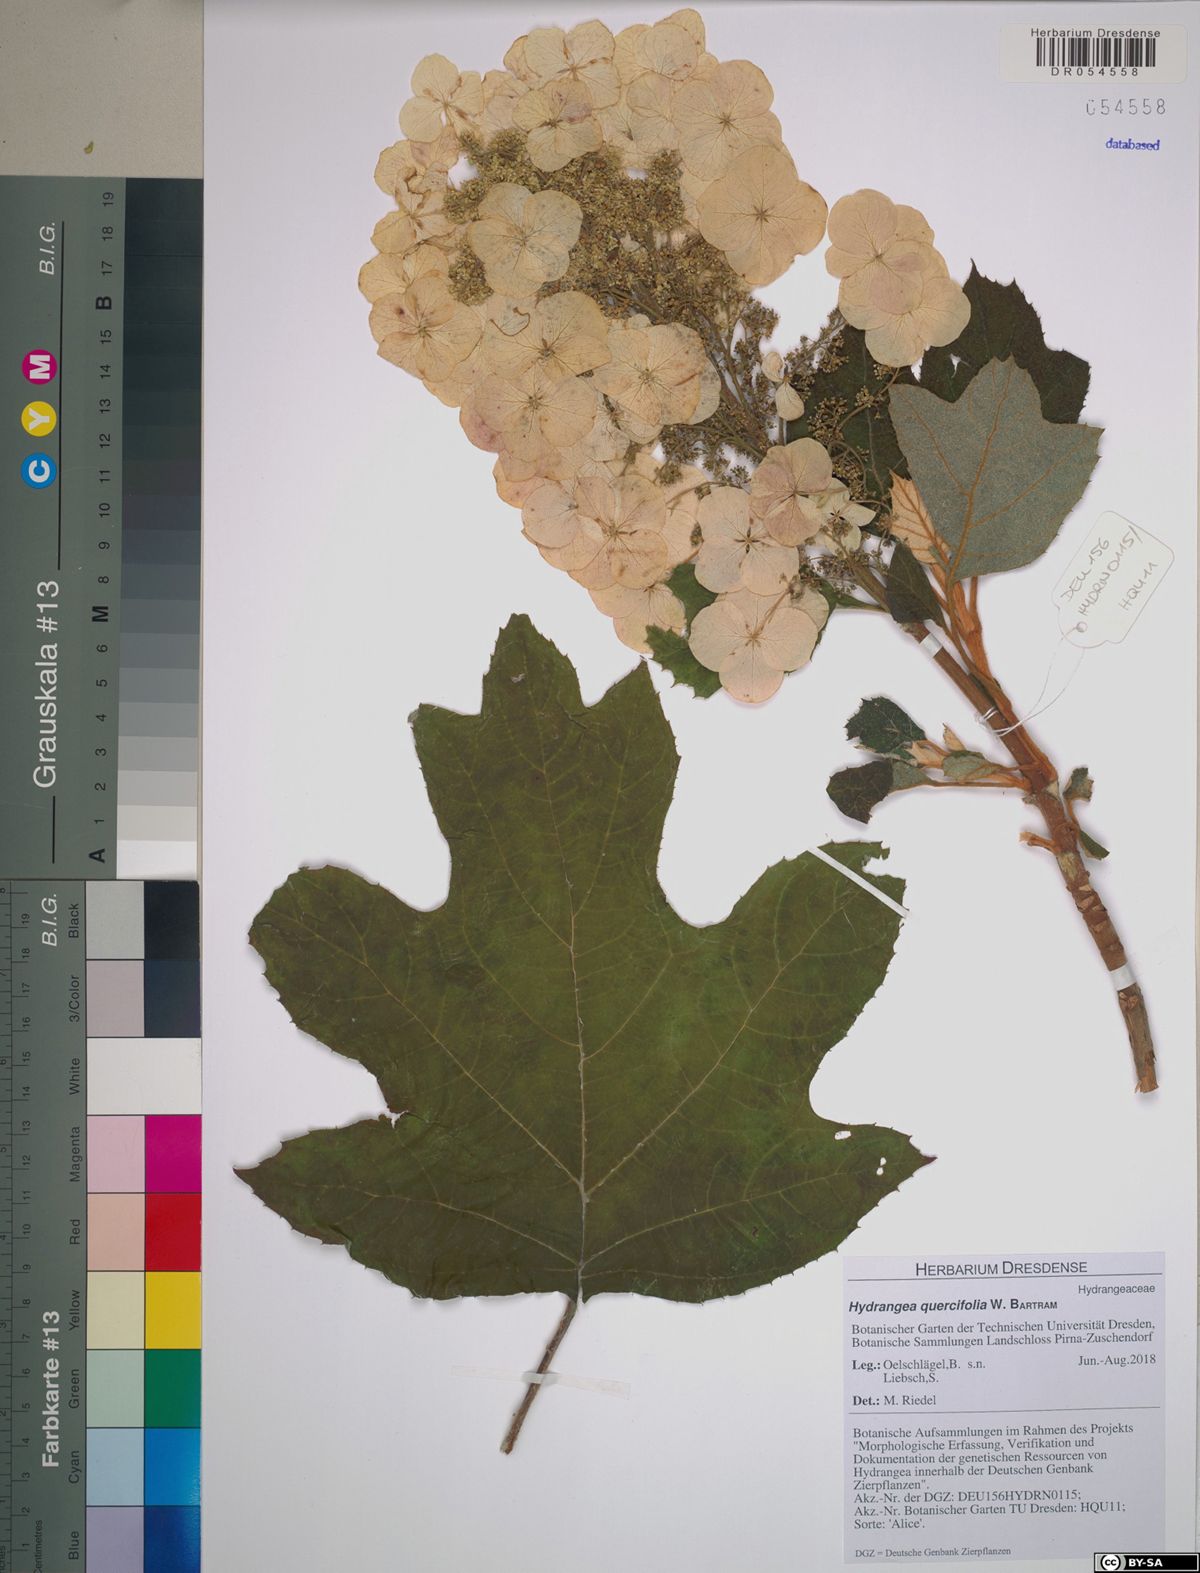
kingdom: Plantae
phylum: Tracheophyta
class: Magnoliopsida
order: Cornales
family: Hydrangeaceae
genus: Hydrangea
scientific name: Hydrangea quercifolia
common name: Oak-leaf hydrangea
